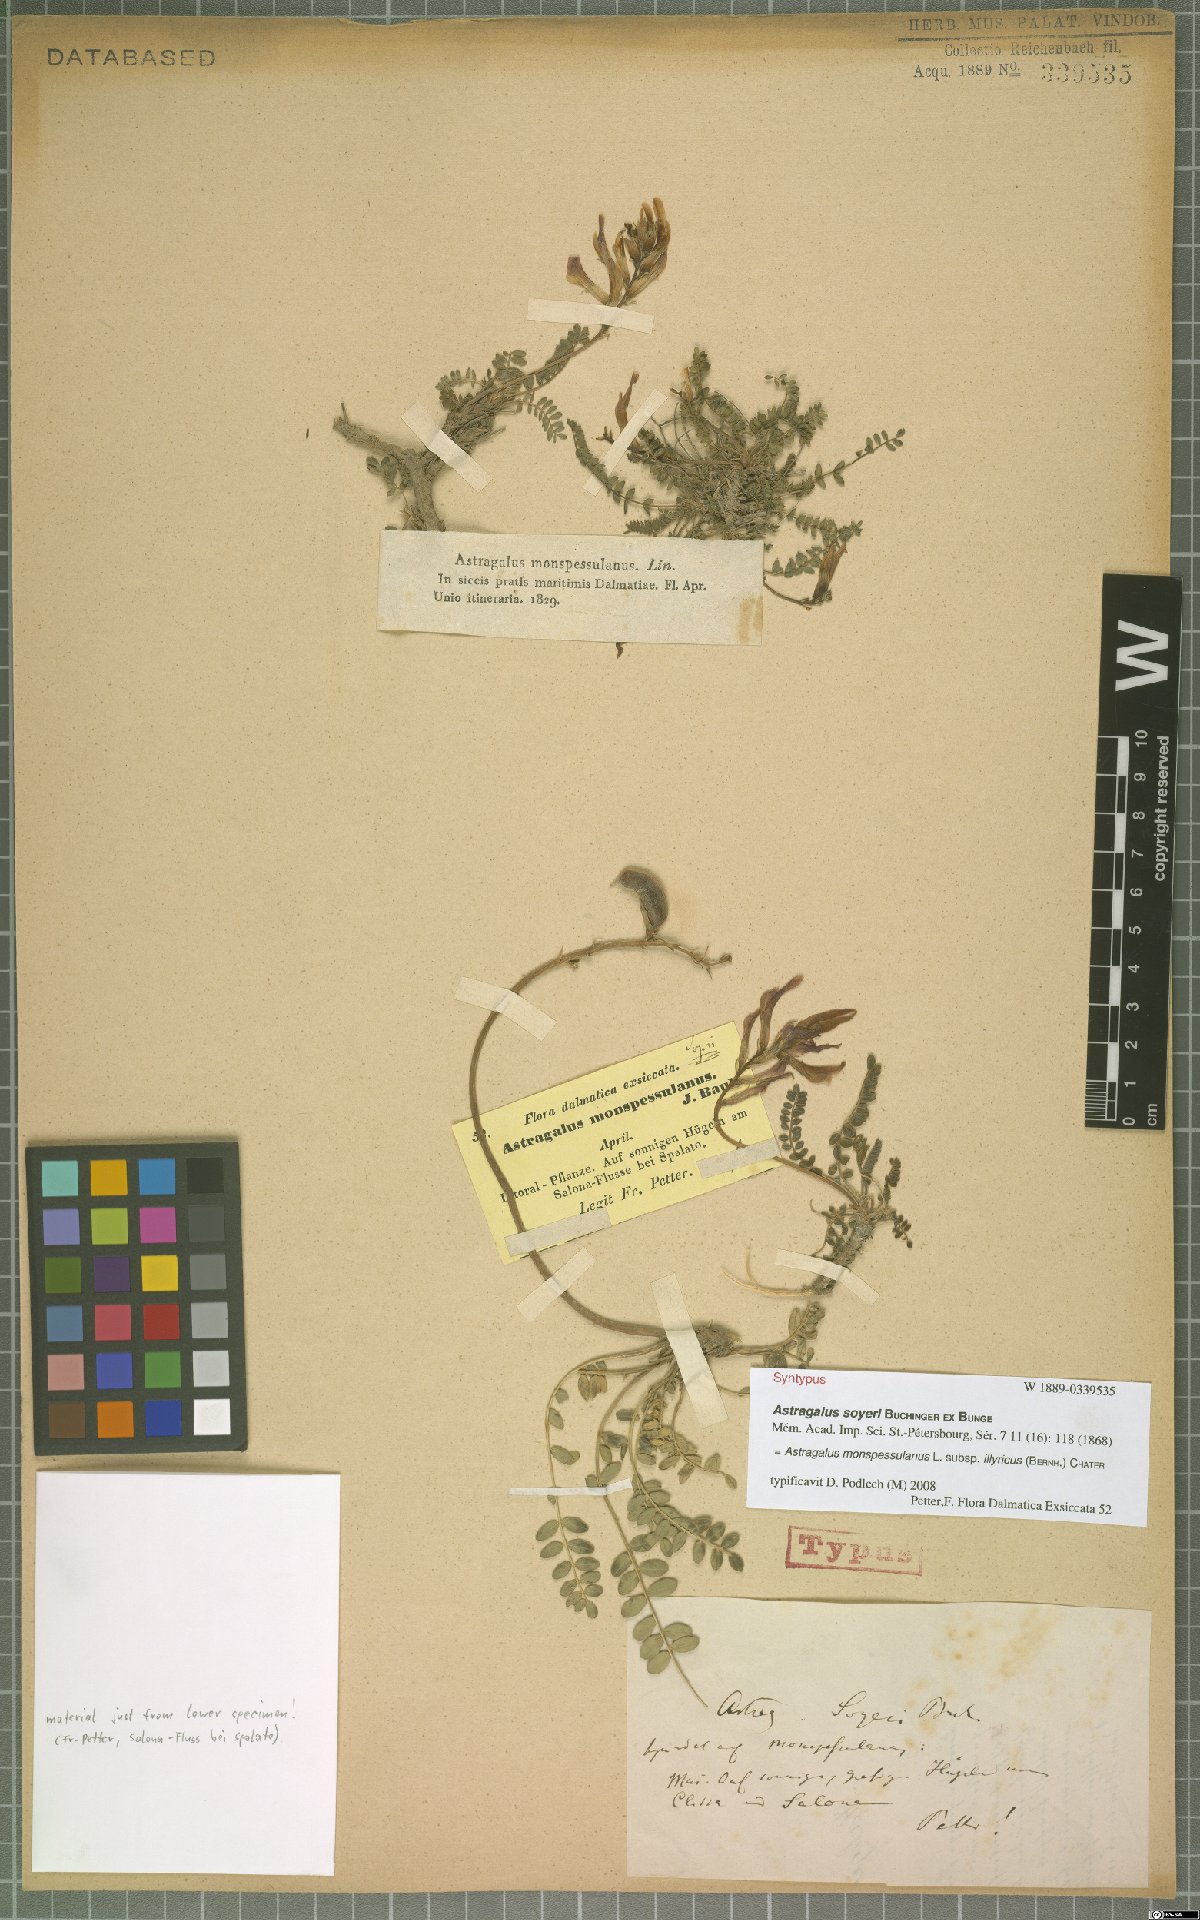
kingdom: Plantae
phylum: Tracheophyta
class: Magnoliopsida
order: Fabales
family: Fabaceae
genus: Astragalus
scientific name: Astragalus monspessulanus
